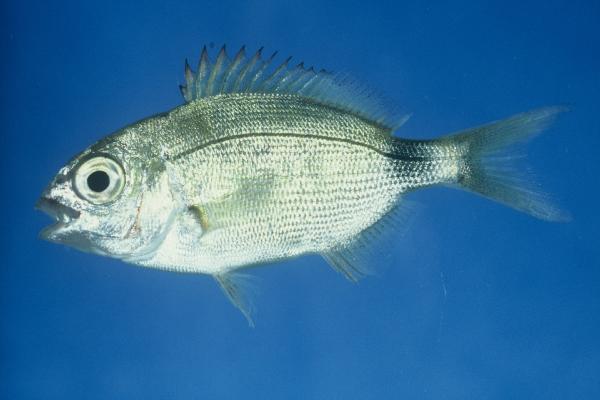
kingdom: Animalia
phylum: Chordata
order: Perciformes
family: Sparidae
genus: Diplodus
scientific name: Diplodus capensis
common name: Blacktail
